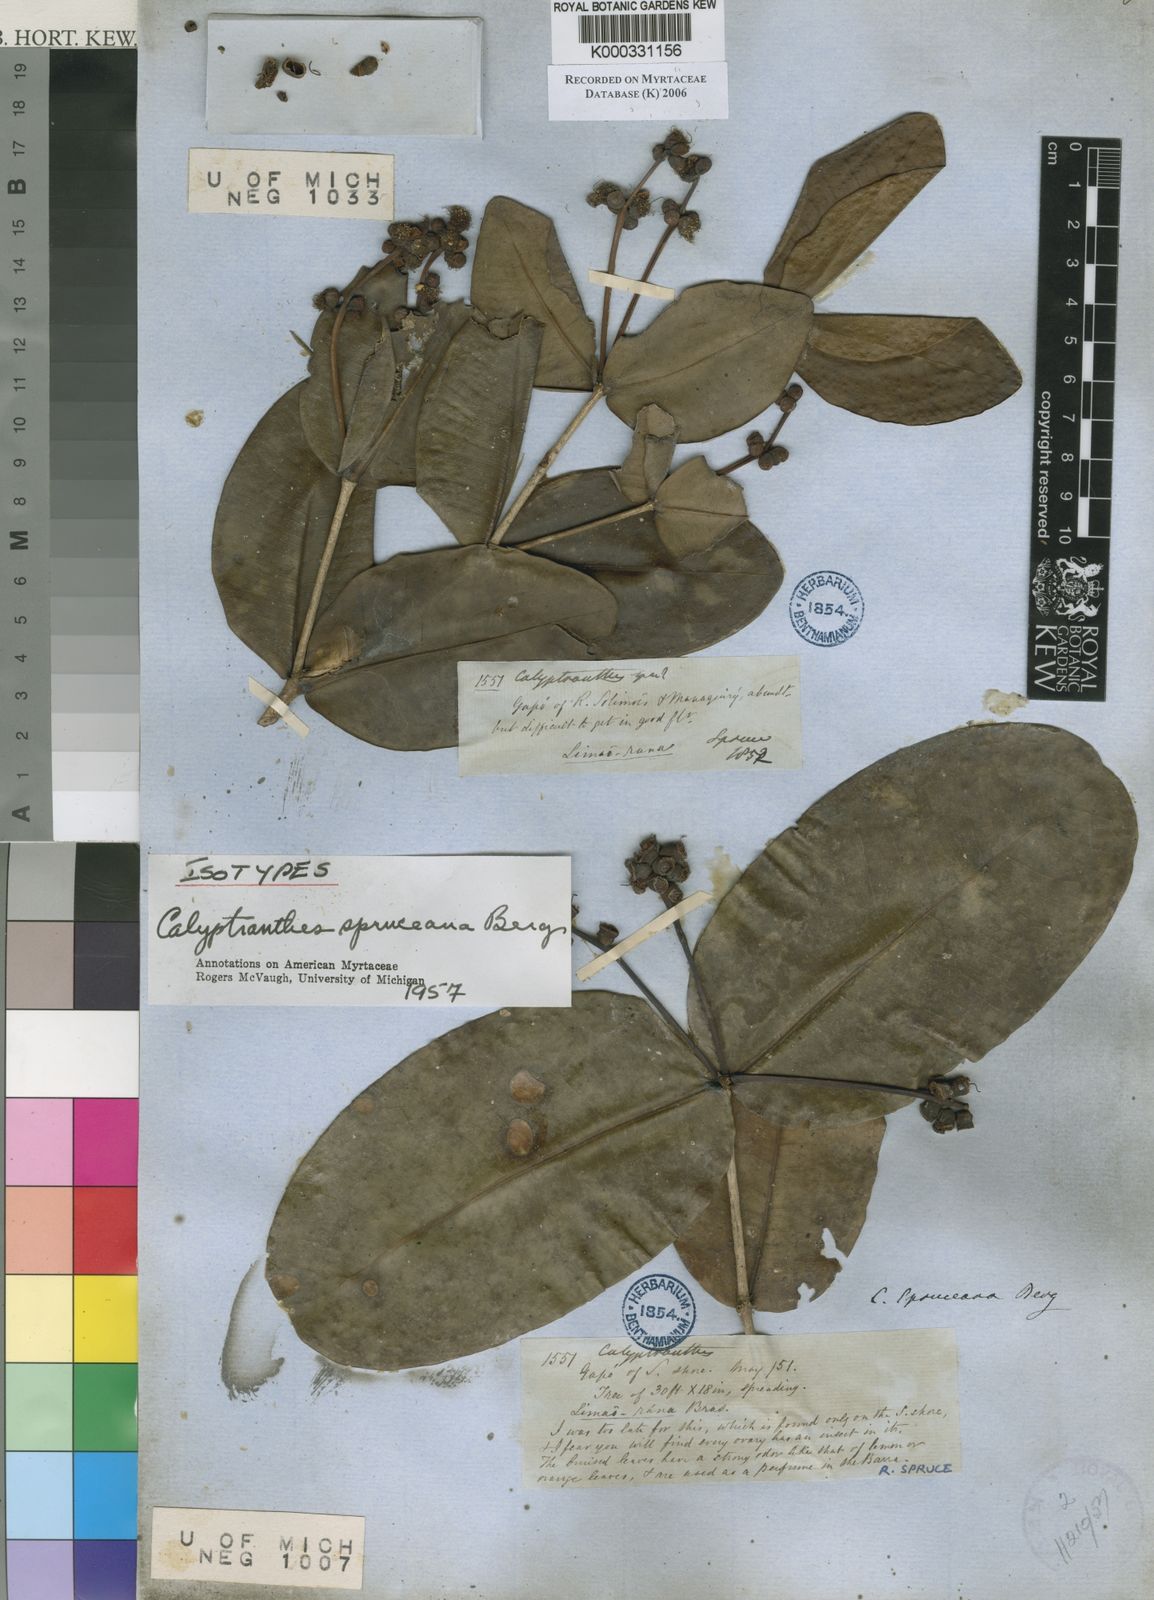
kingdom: Plantae
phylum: Tracheophyta
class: Magnoliopsida
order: Myrtales
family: Myrtaceae
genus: Myrcia
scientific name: Myrcia hedraiophylla
